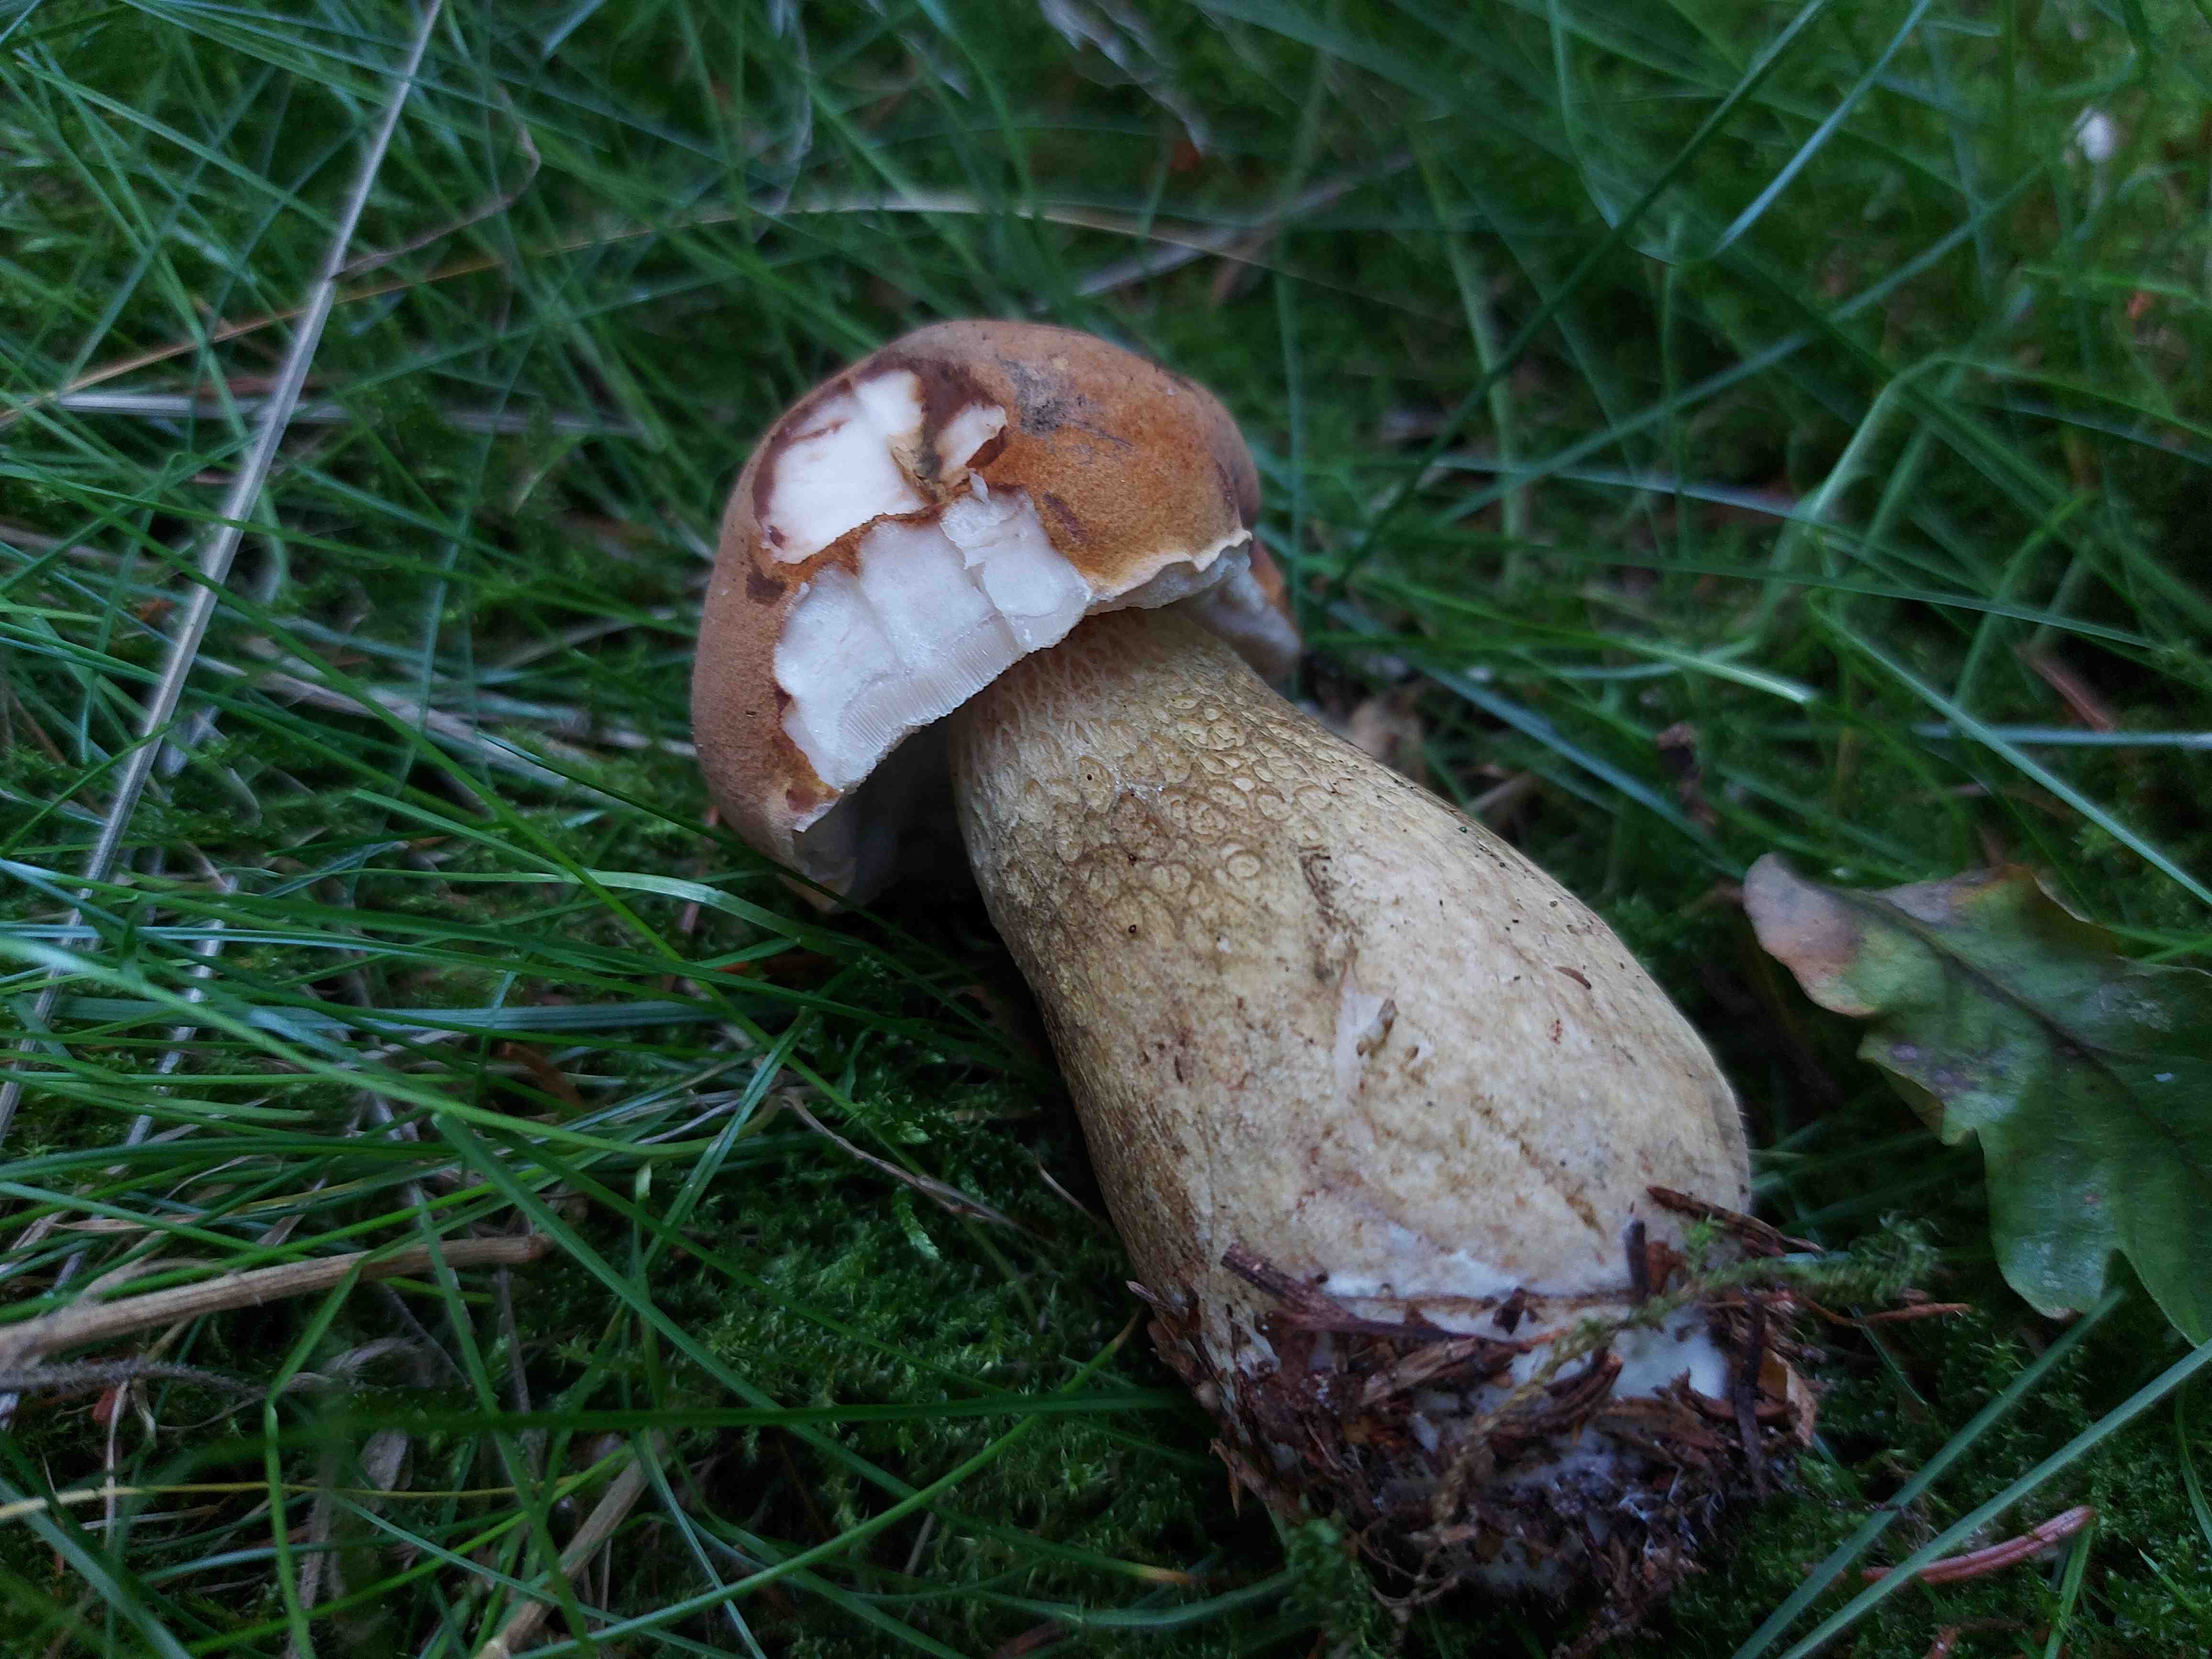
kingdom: Fungi
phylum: Basidiomycota
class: Agaricomycetes
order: Boletales
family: Boletaceae
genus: Tylopilus
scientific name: Tylopilus felleus
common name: galderørhat
